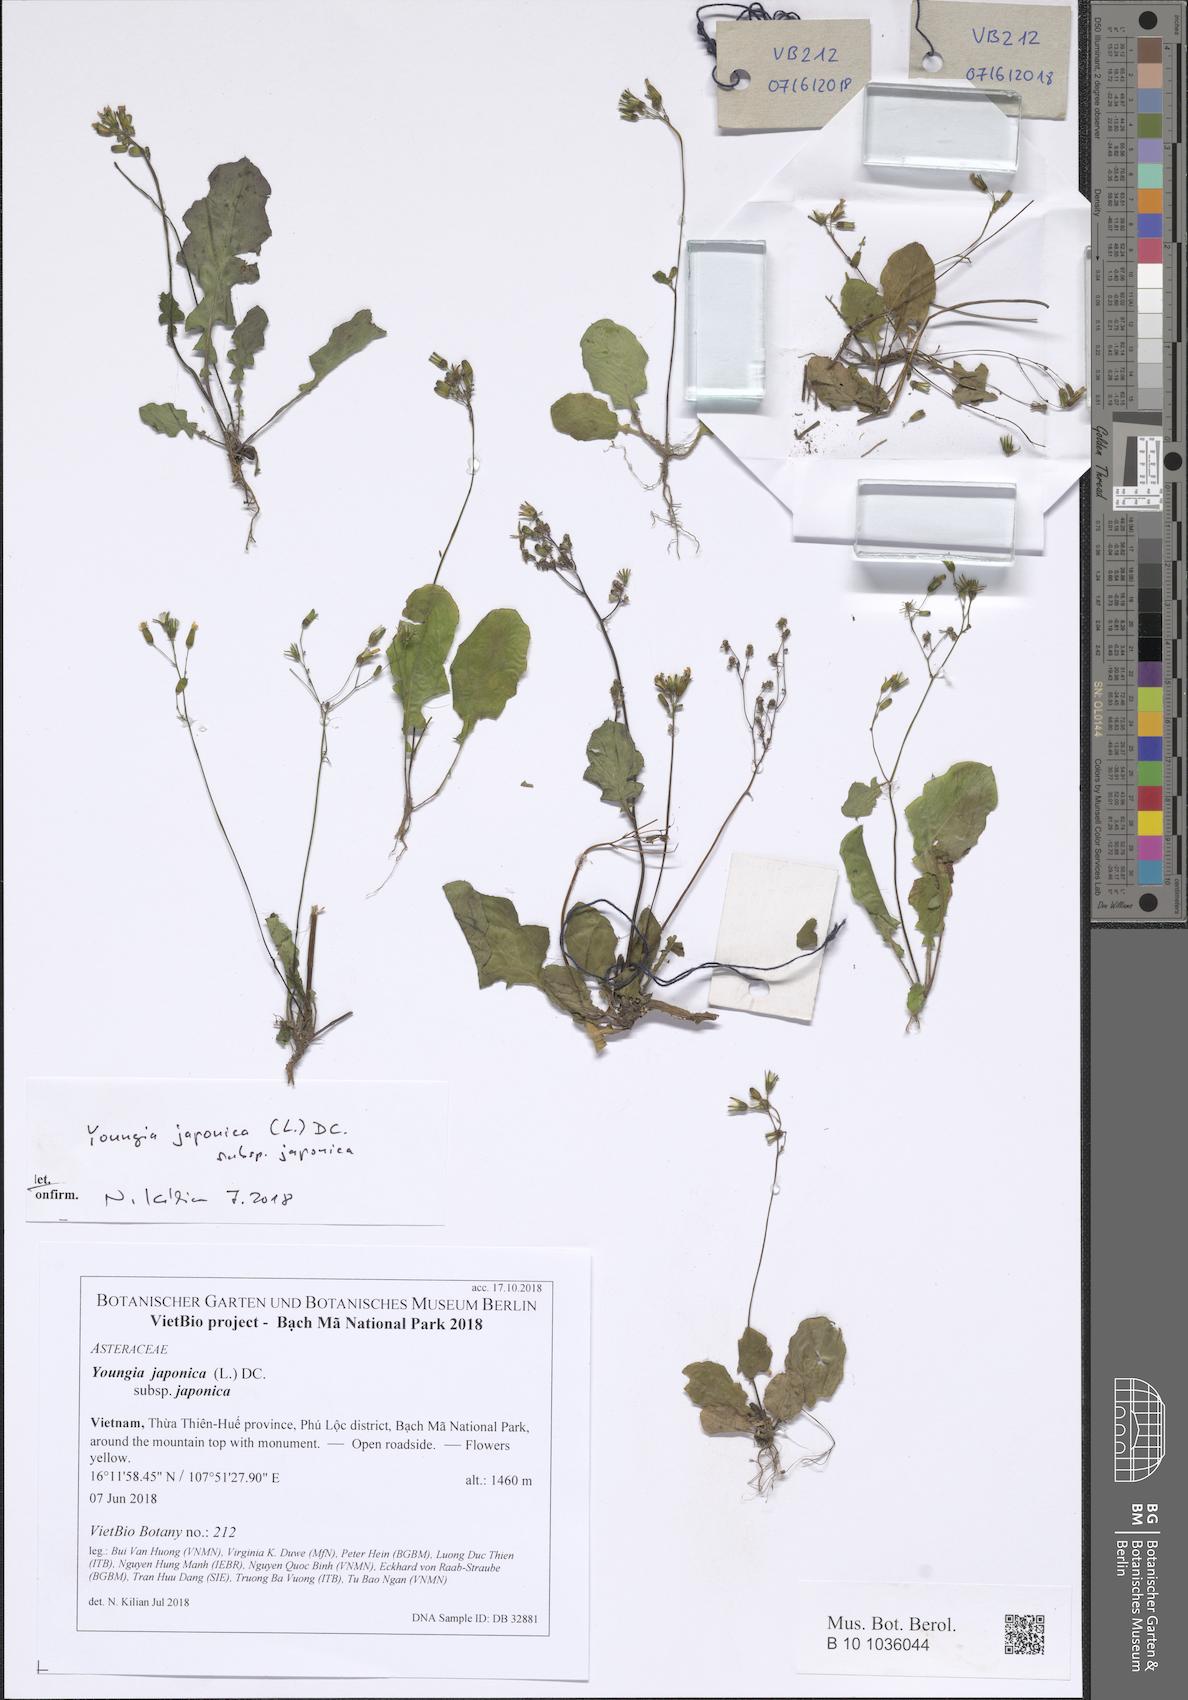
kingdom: Plantae
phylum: Tracheophyta
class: Magnoliopsida
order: Asterales
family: Asteraceae
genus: Youngia
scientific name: Youngia japonica
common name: Oriental false hawksbeard
